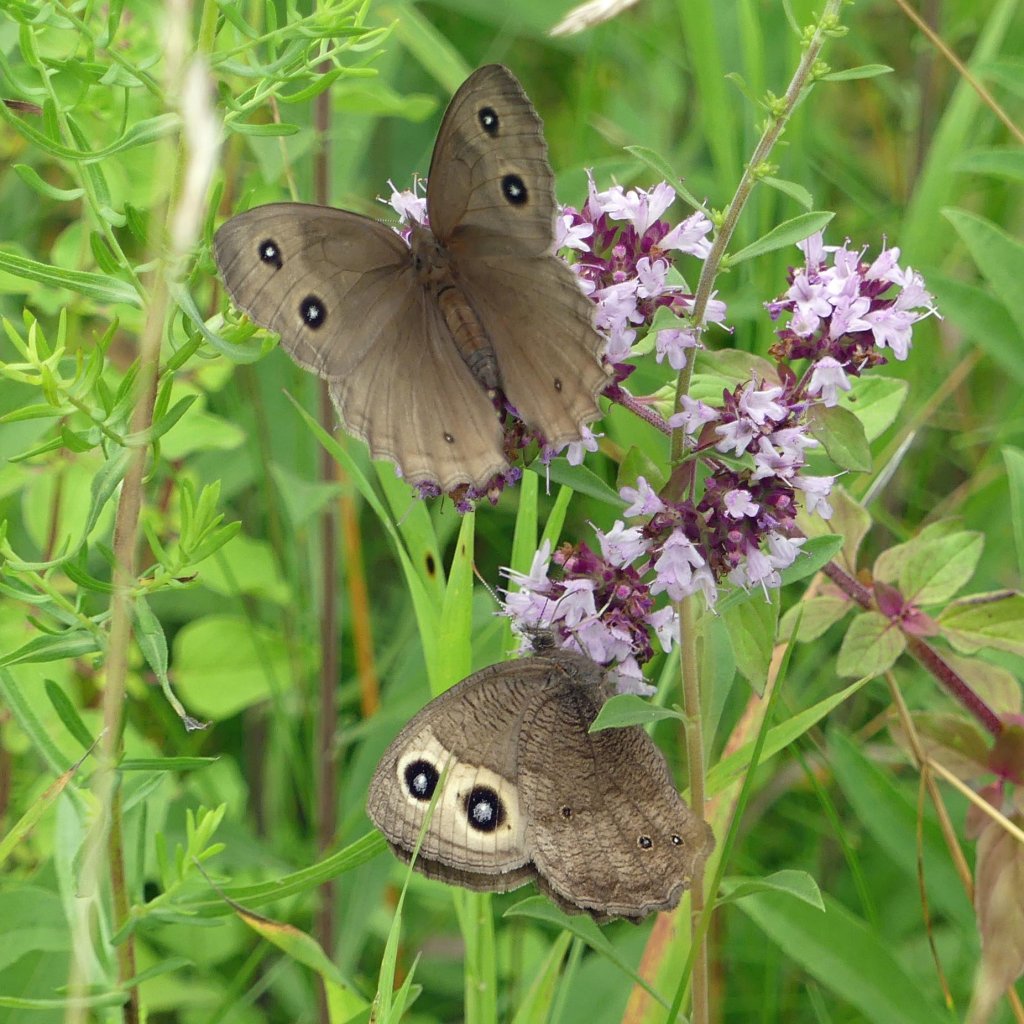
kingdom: Animalia
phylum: Arthropoda
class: Insecta
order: Lepidoptera
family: Nymphalidae
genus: Cercyonis
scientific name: Cercyonis pegala
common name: Common Wood-Nymph
